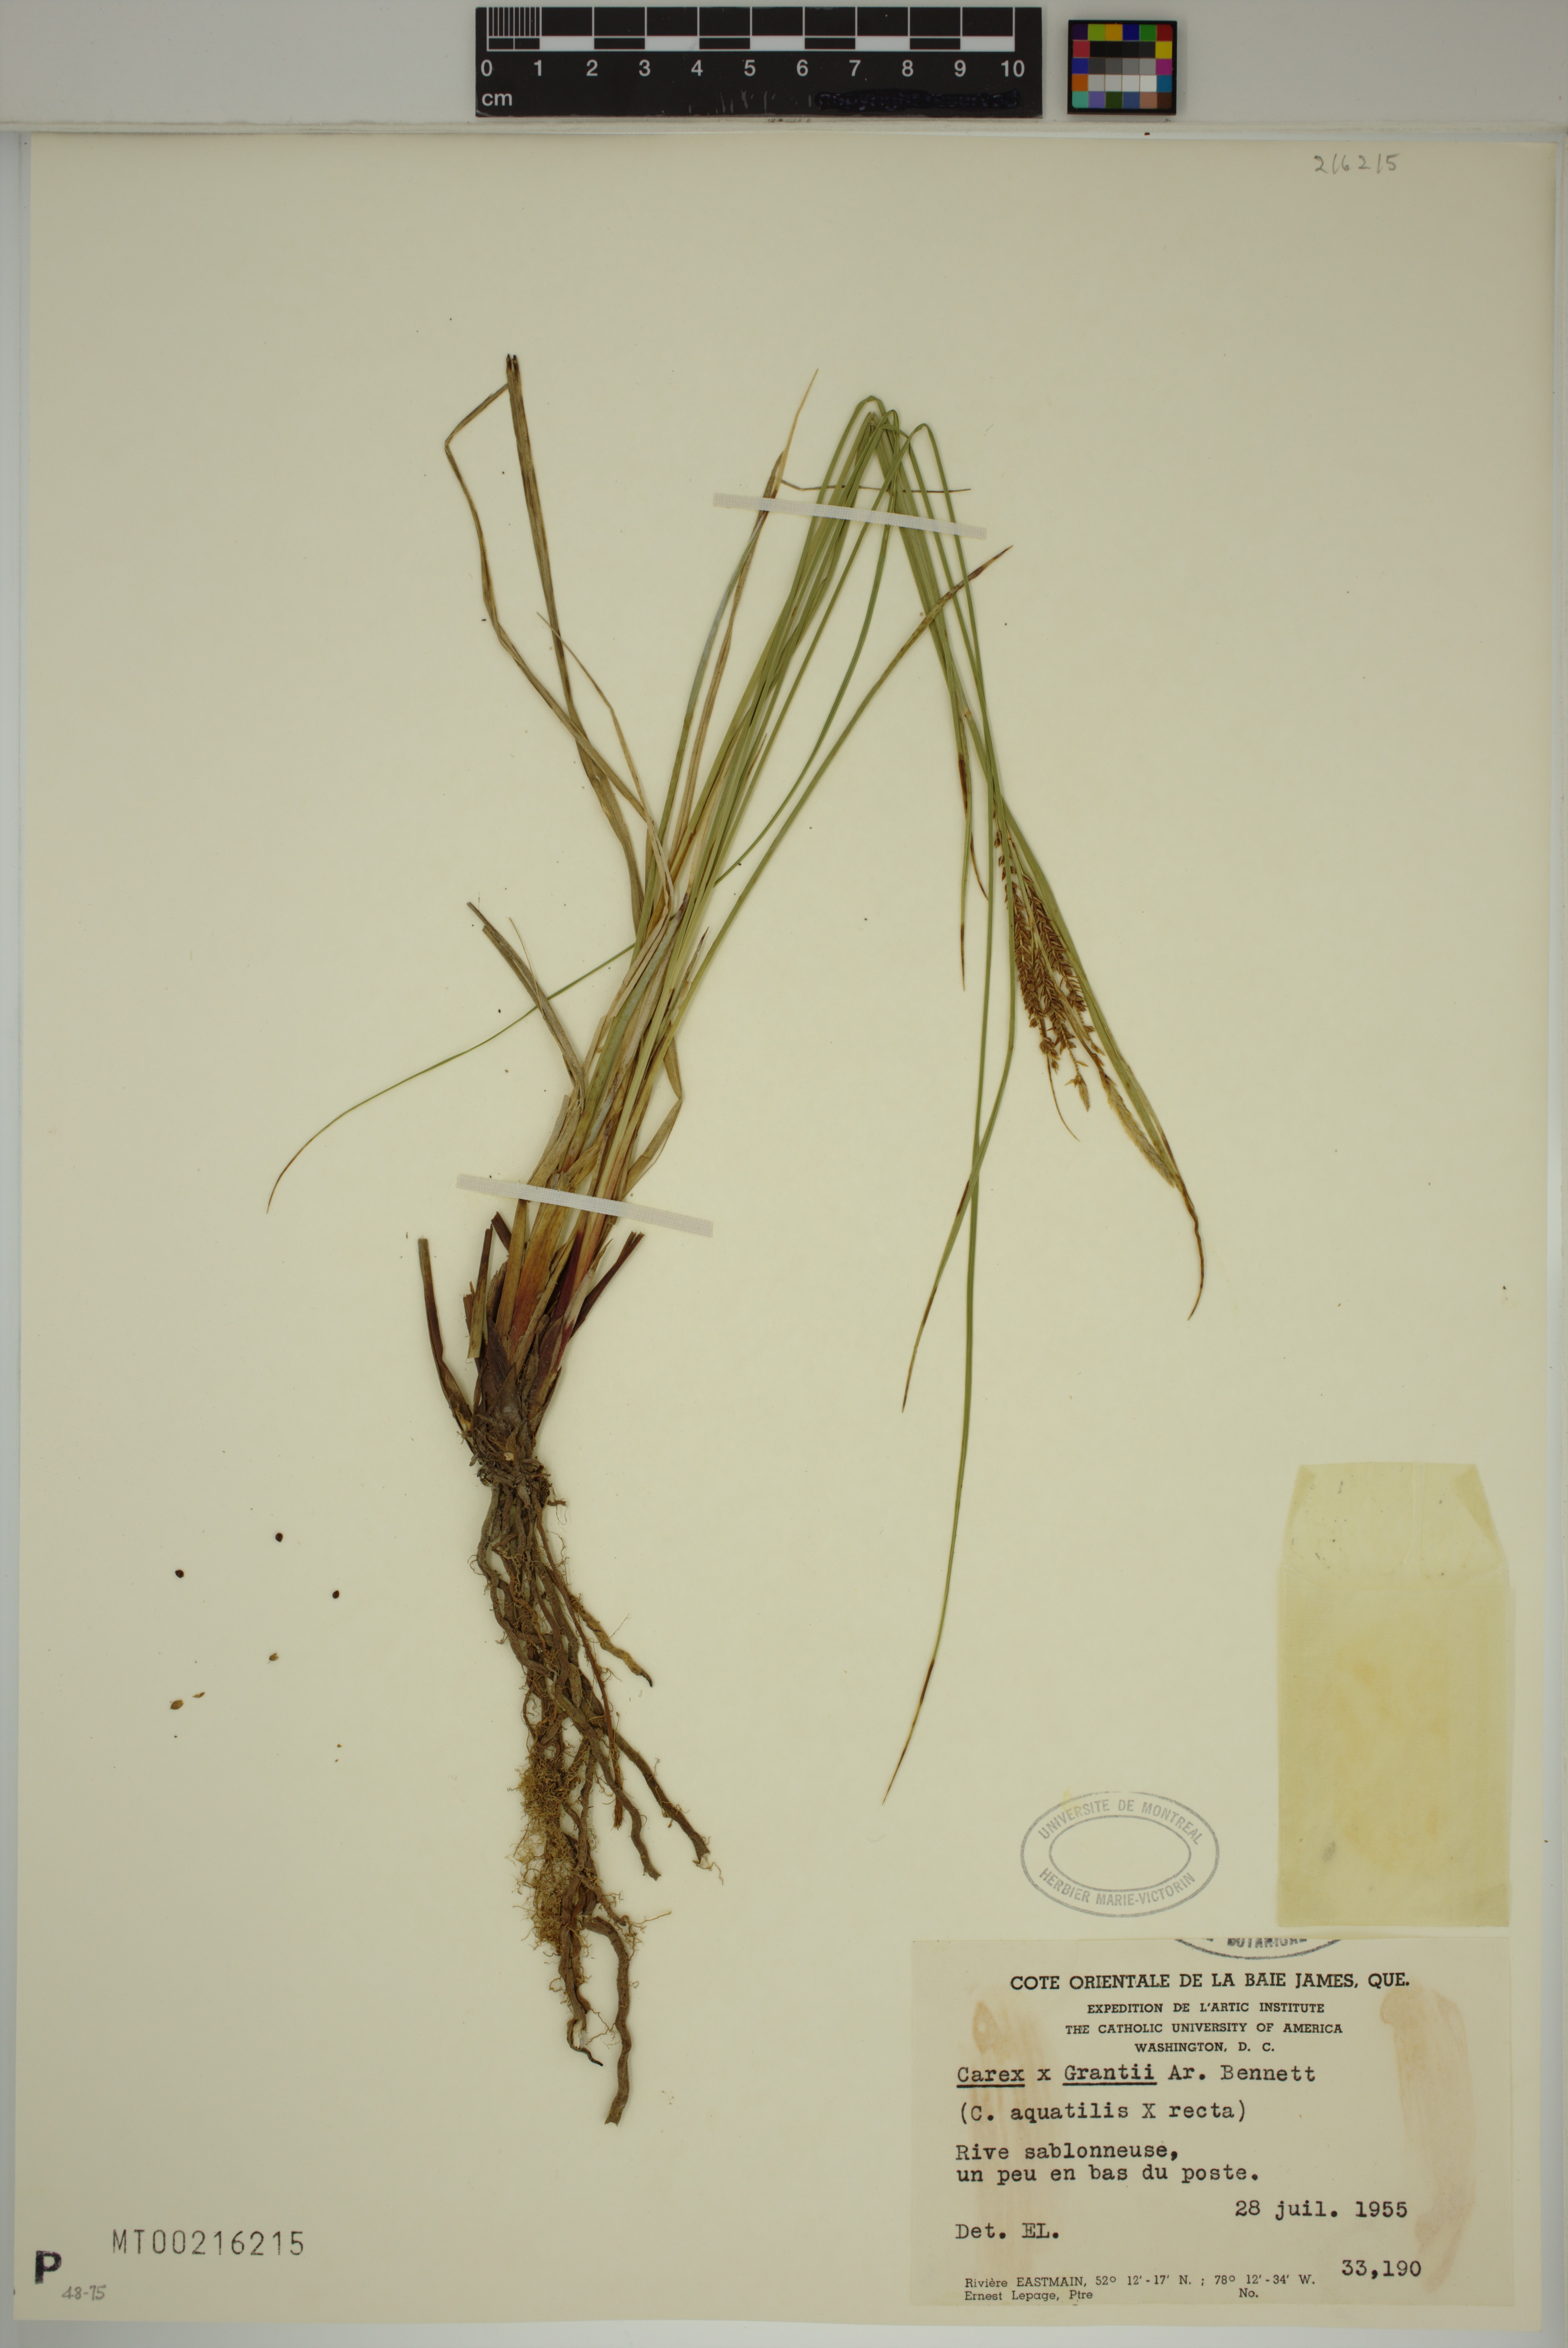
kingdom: Plantae
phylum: Tracheophyta
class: Liliopsida
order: Poales
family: Cyperaceae
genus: Carex
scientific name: Carex grantii
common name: Grant's sedge
